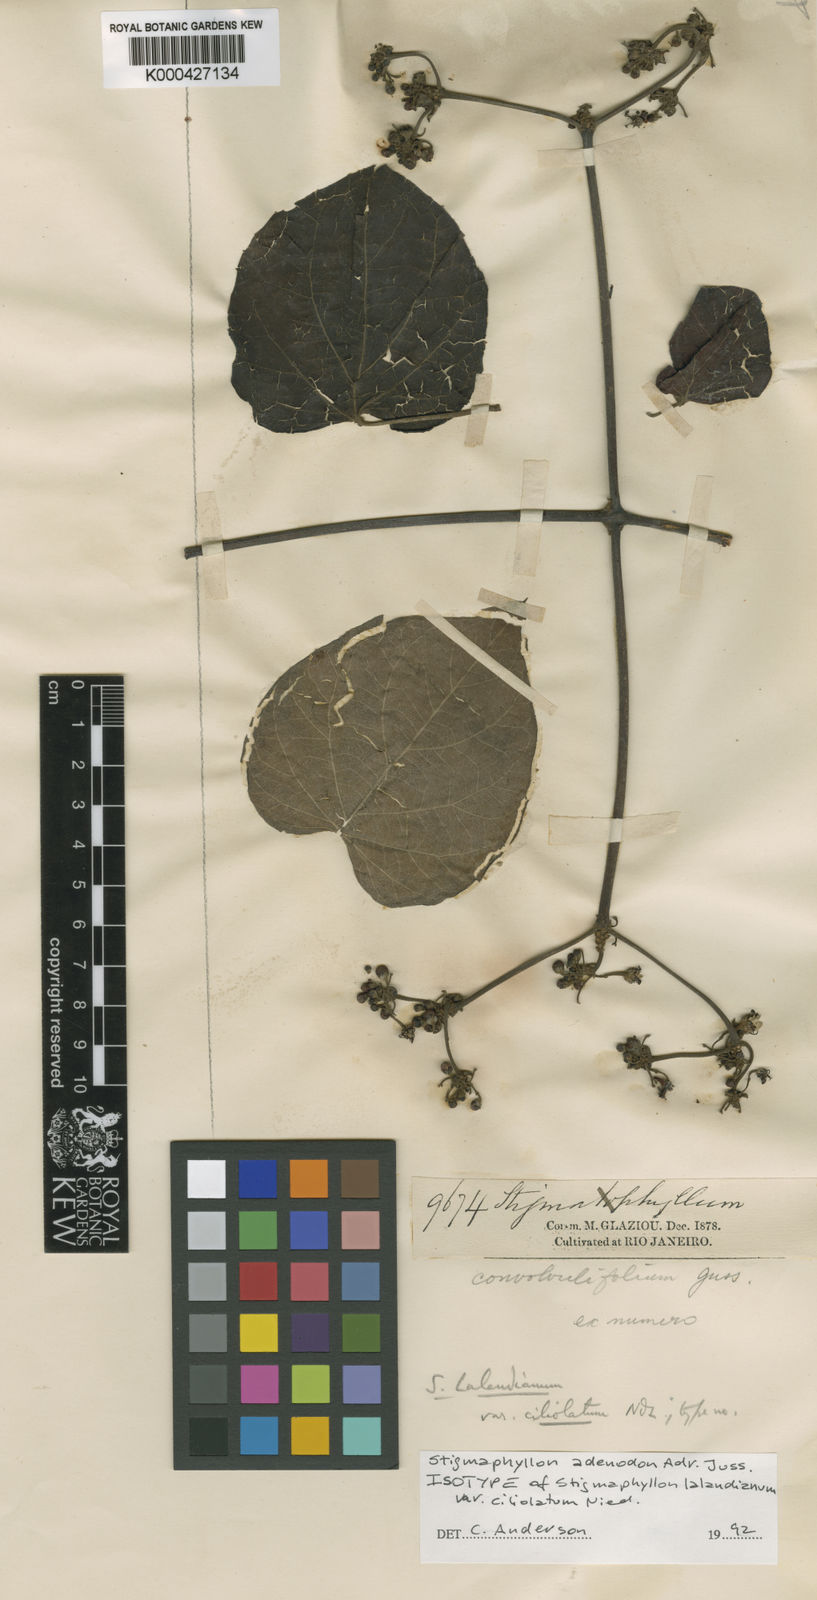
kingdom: Plantae
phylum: Tracheophyta
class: Magnoliopsida
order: Malpighiales
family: Malpighiaceae
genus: Stigmaphyllon
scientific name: Stigmaphyllon adenodon
